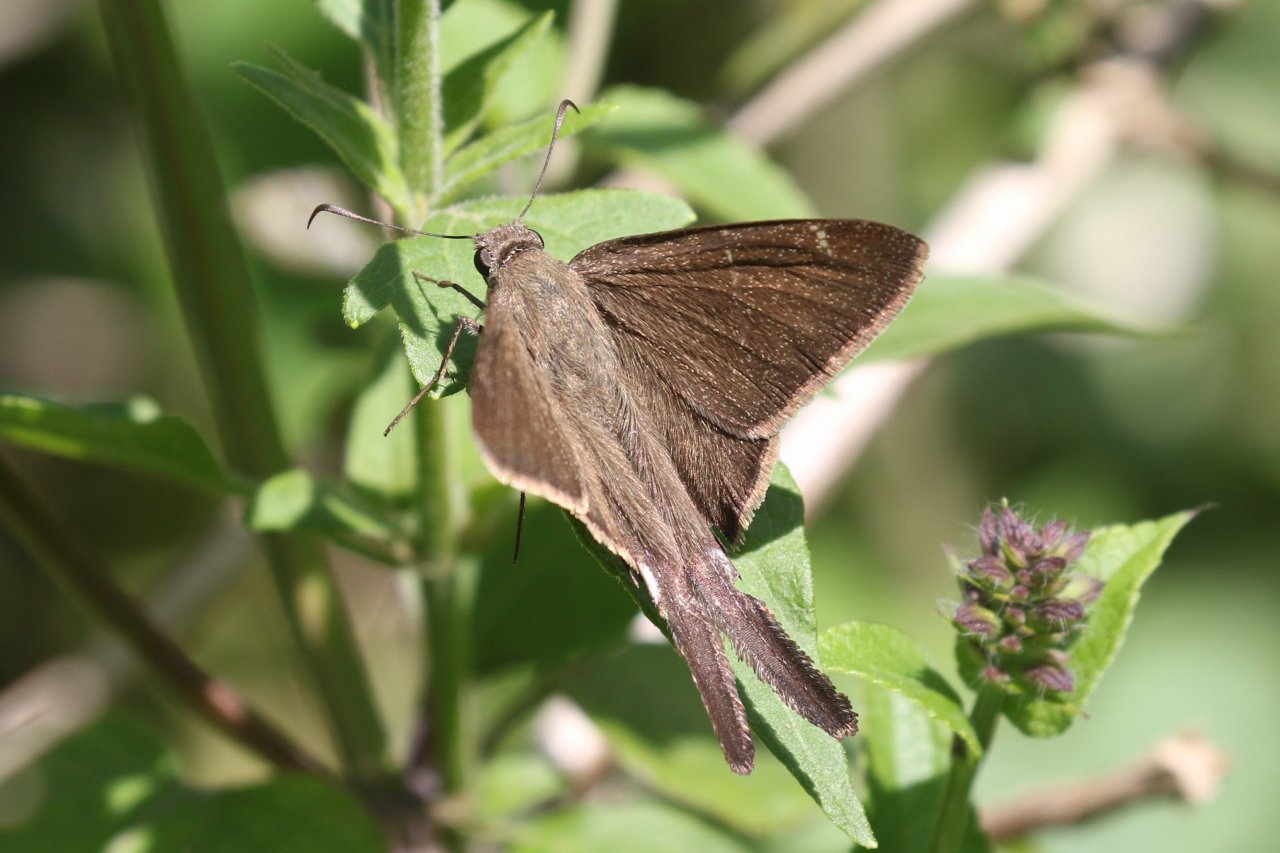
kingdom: Animalia
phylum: Arthropoda
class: Insecta
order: Lepidoptera
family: Hesperiidae
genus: Urbanus
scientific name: Urbanus procne
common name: Brown Longtail
